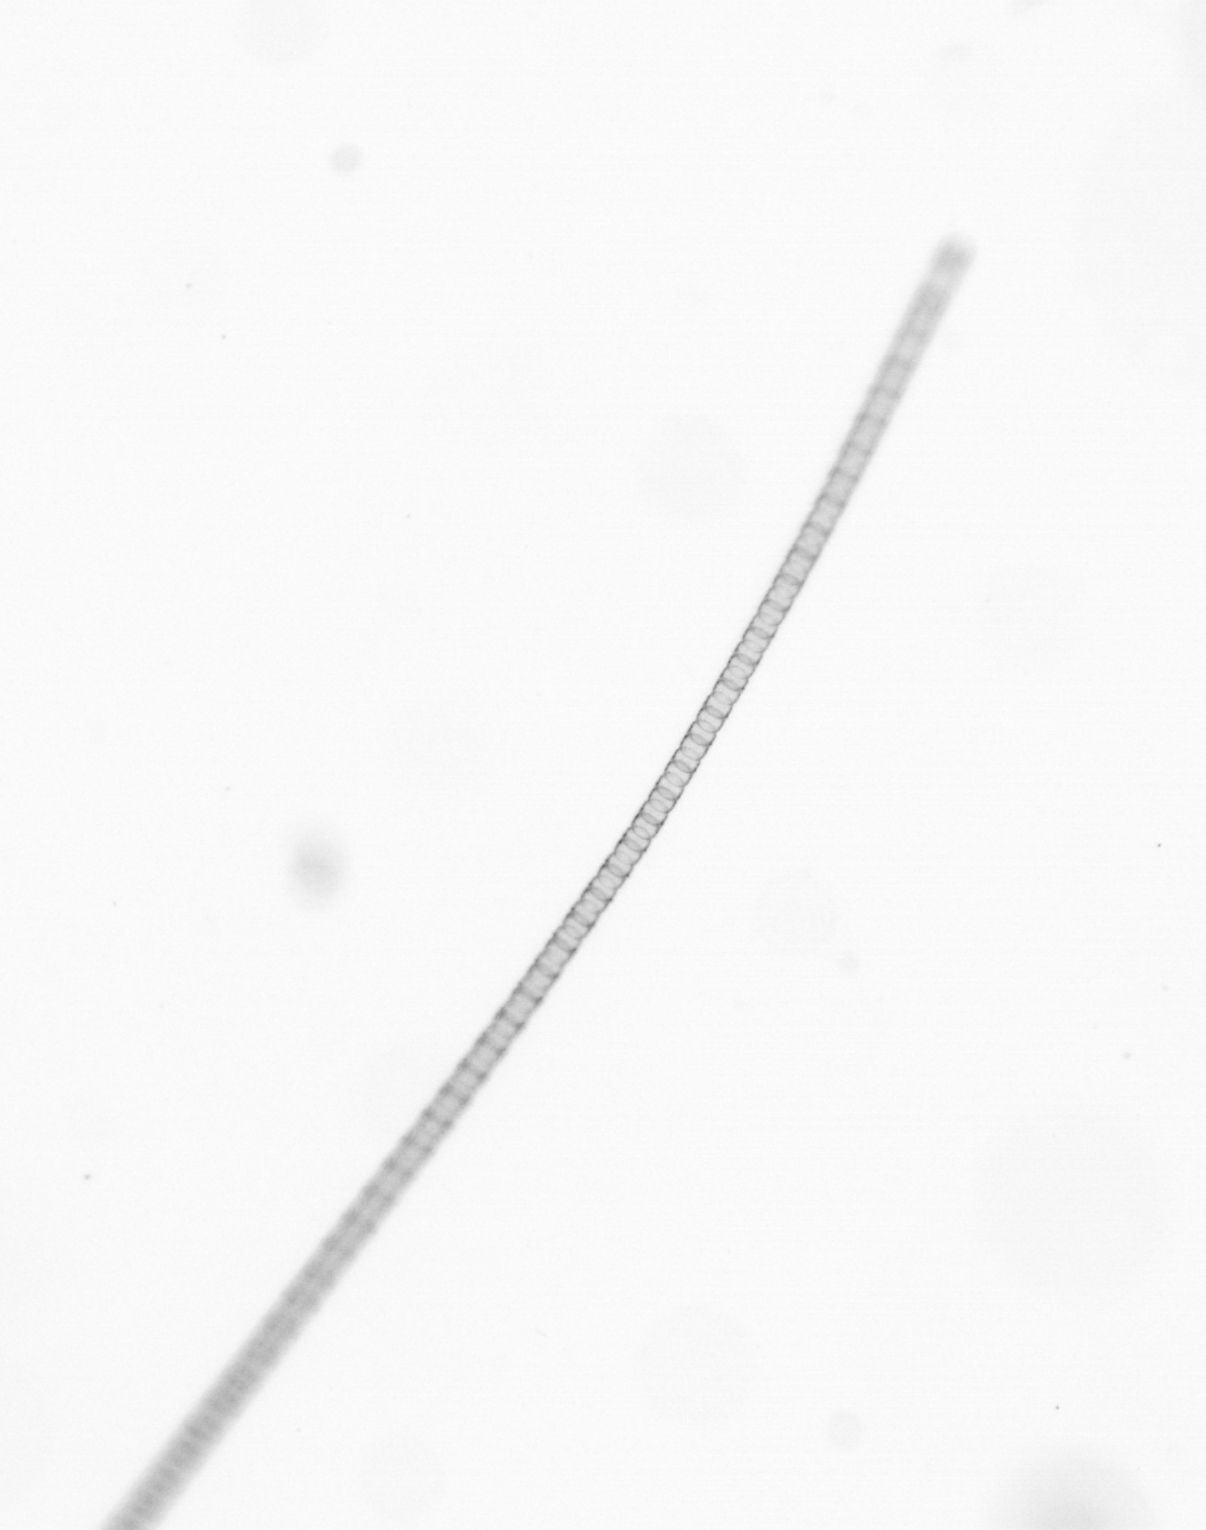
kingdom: Chromista
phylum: Ochrophyta
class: Bacillariophyceae
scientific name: Bacillariophyceae
